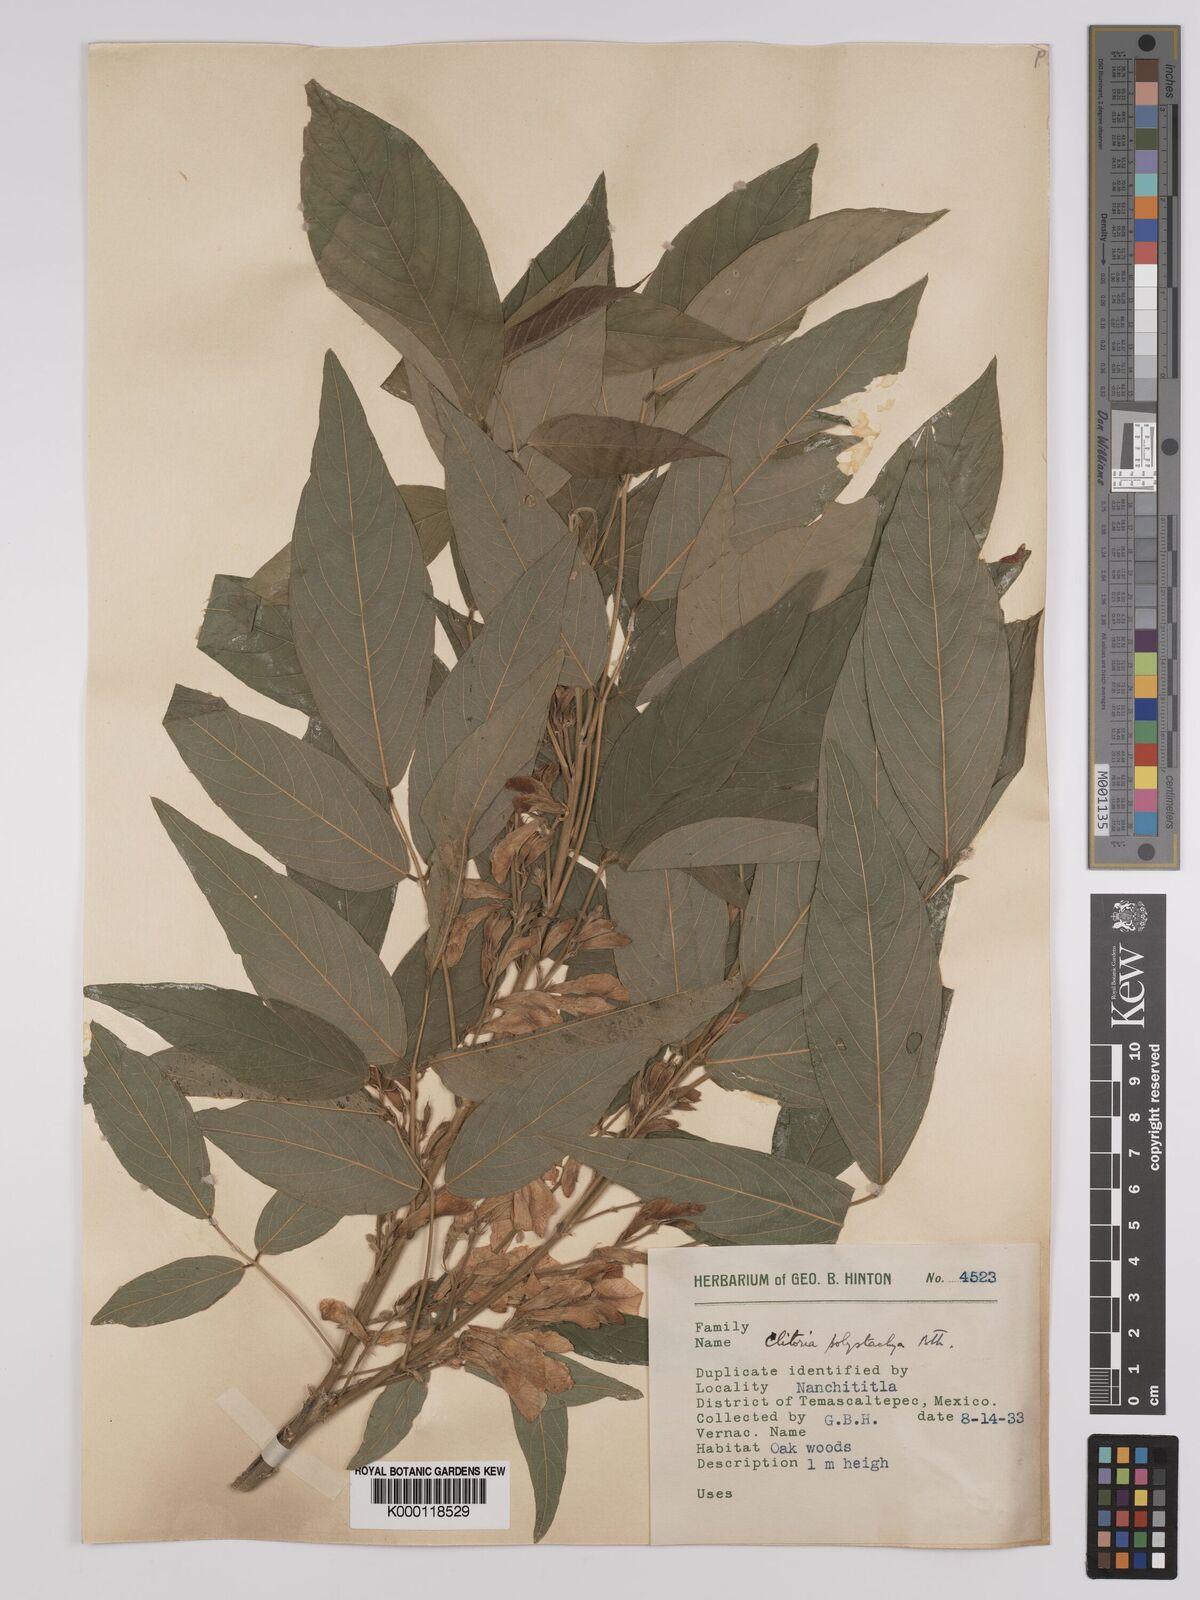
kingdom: Plantae
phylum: Tracheophyta
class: Magnoliopsida
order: Fabales
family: Fabaceae
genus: Clitoria
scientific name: Clitoria polystachya
